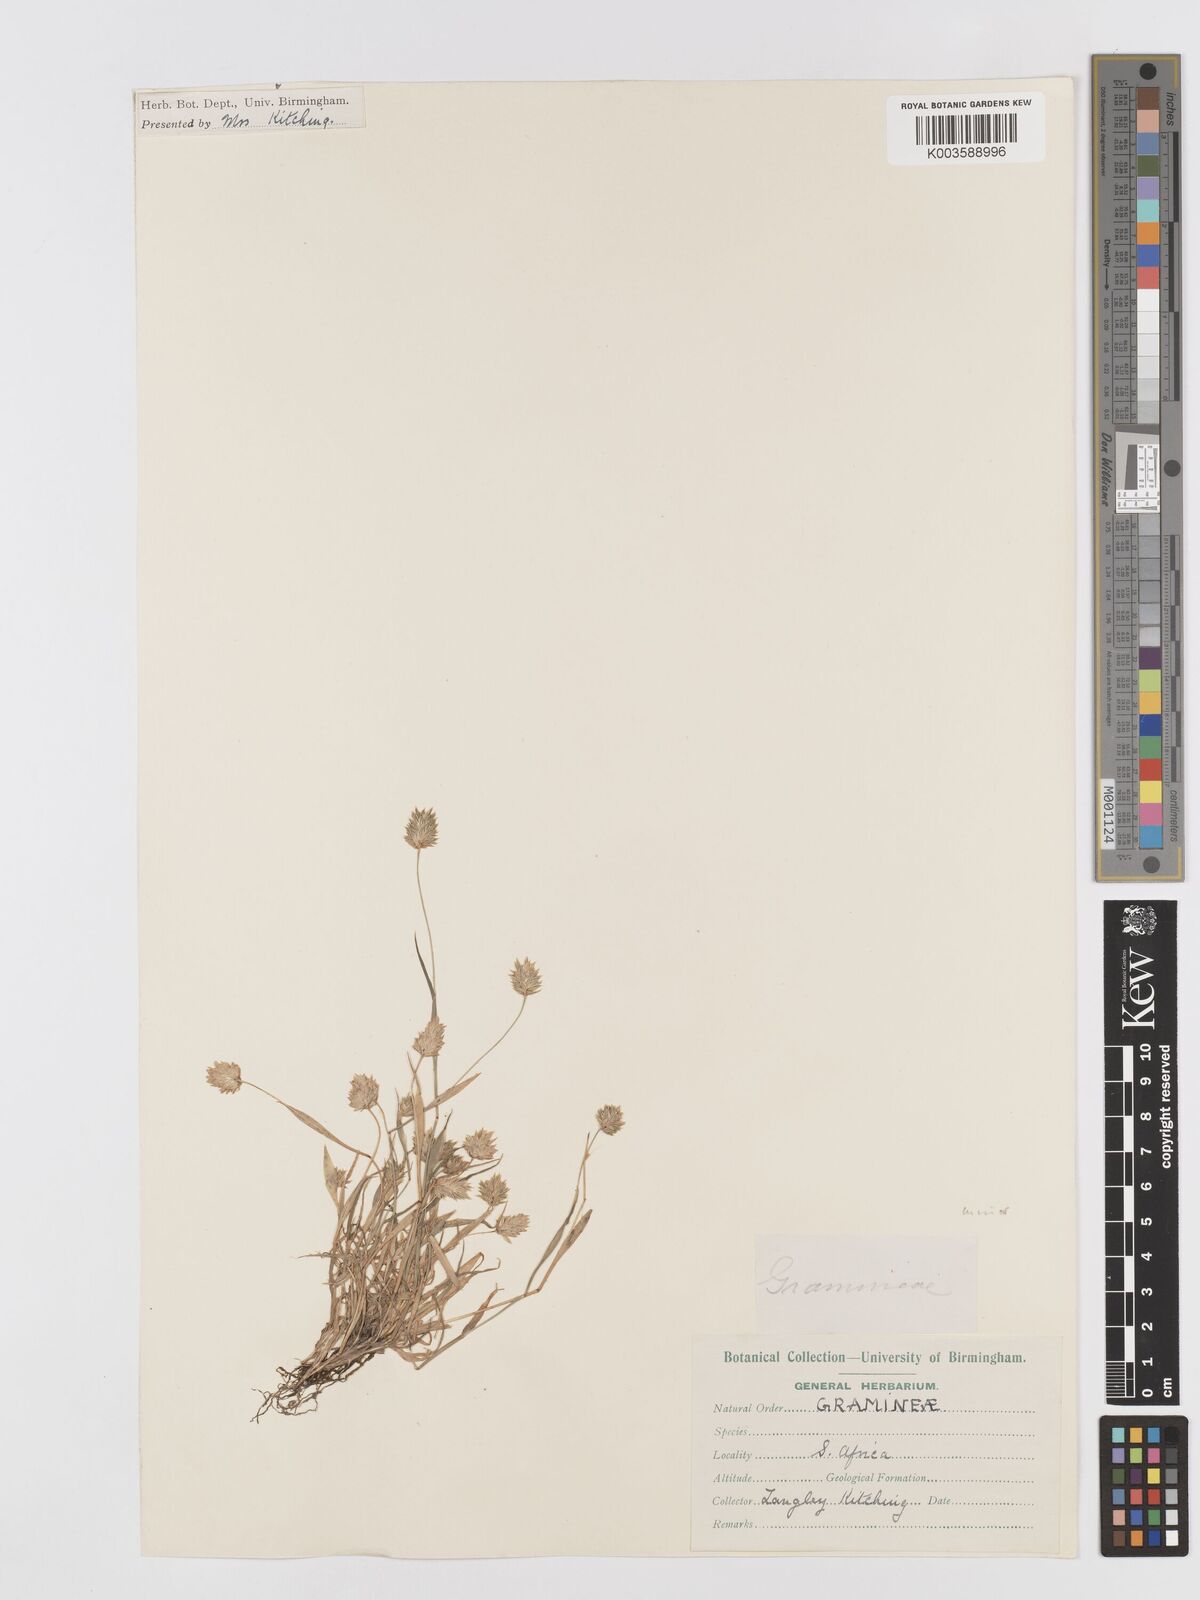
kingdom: Plantae
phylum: Tracheophyta
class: Liliopsida
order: Poales
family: Poaceae
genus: Phalaris
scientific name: Phalaris minor
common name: Littleseed canarygrass
